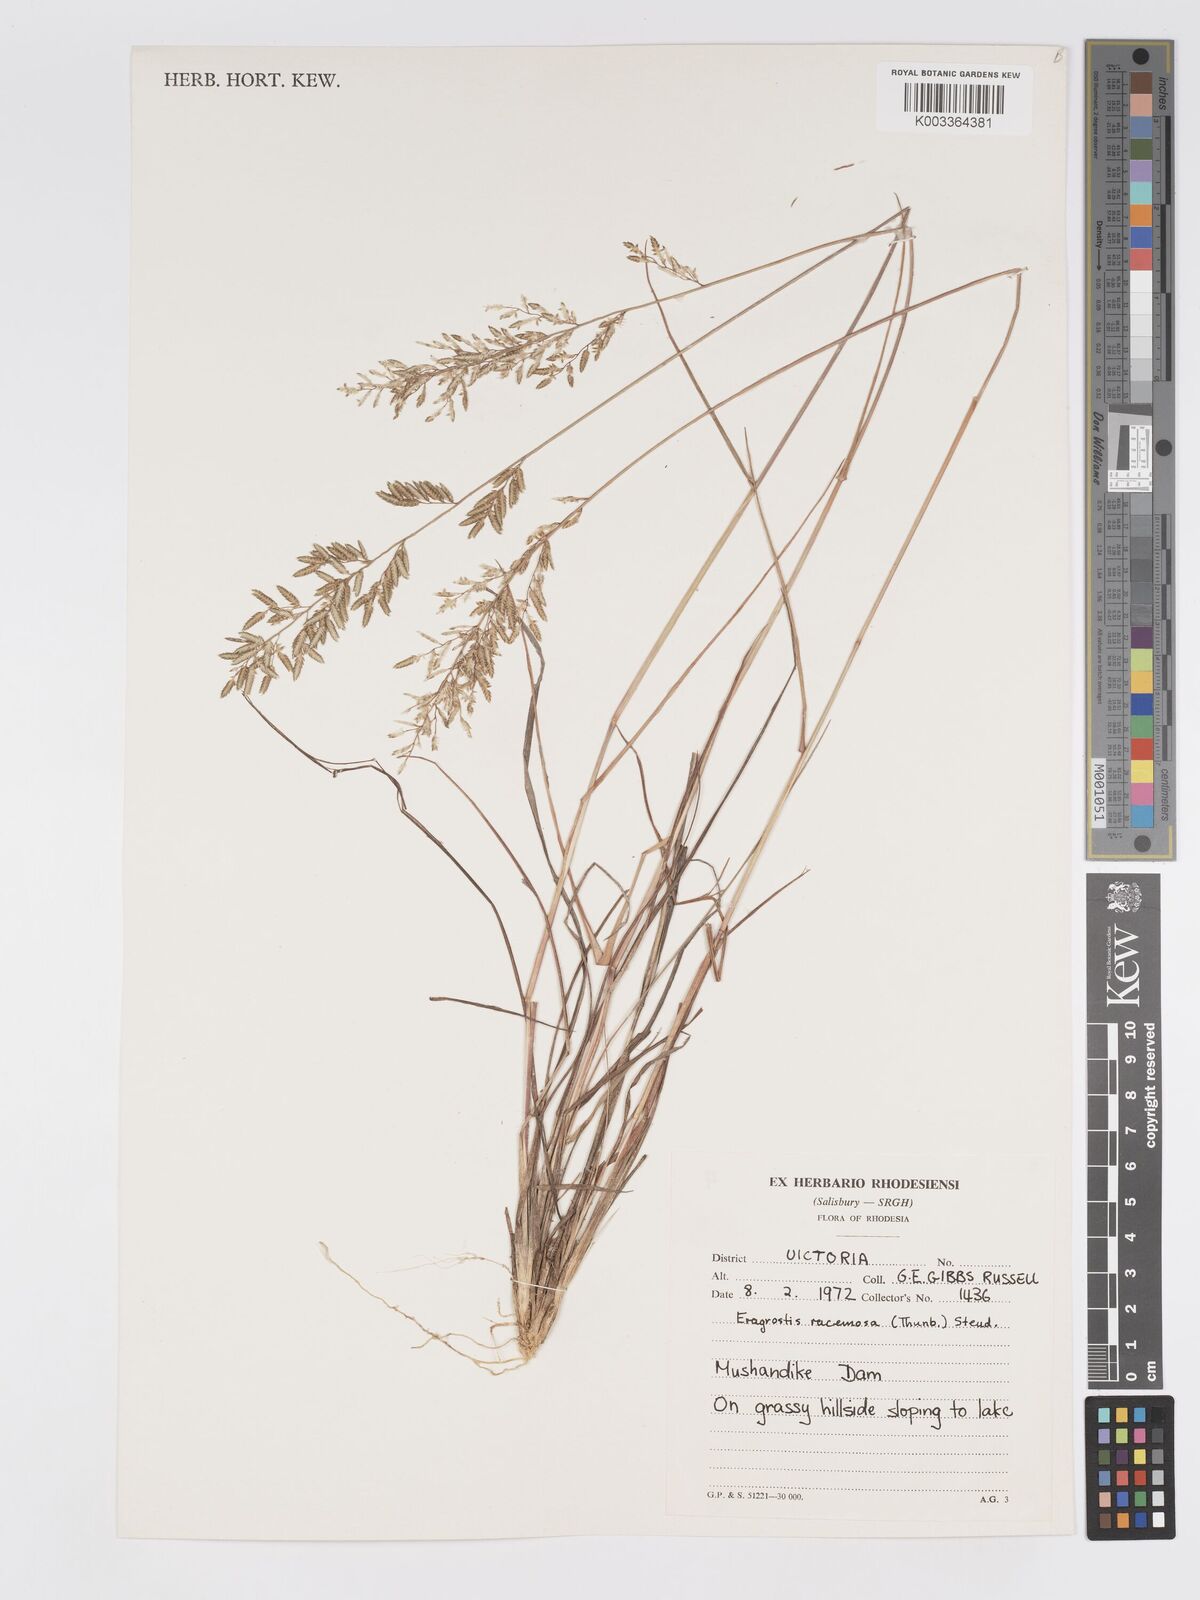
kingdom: Plantae
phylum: Tracheophyta
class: Liliopsida
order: Poales
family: Poaceae
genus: Eragrostis
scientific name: Eragrostis racemosa
